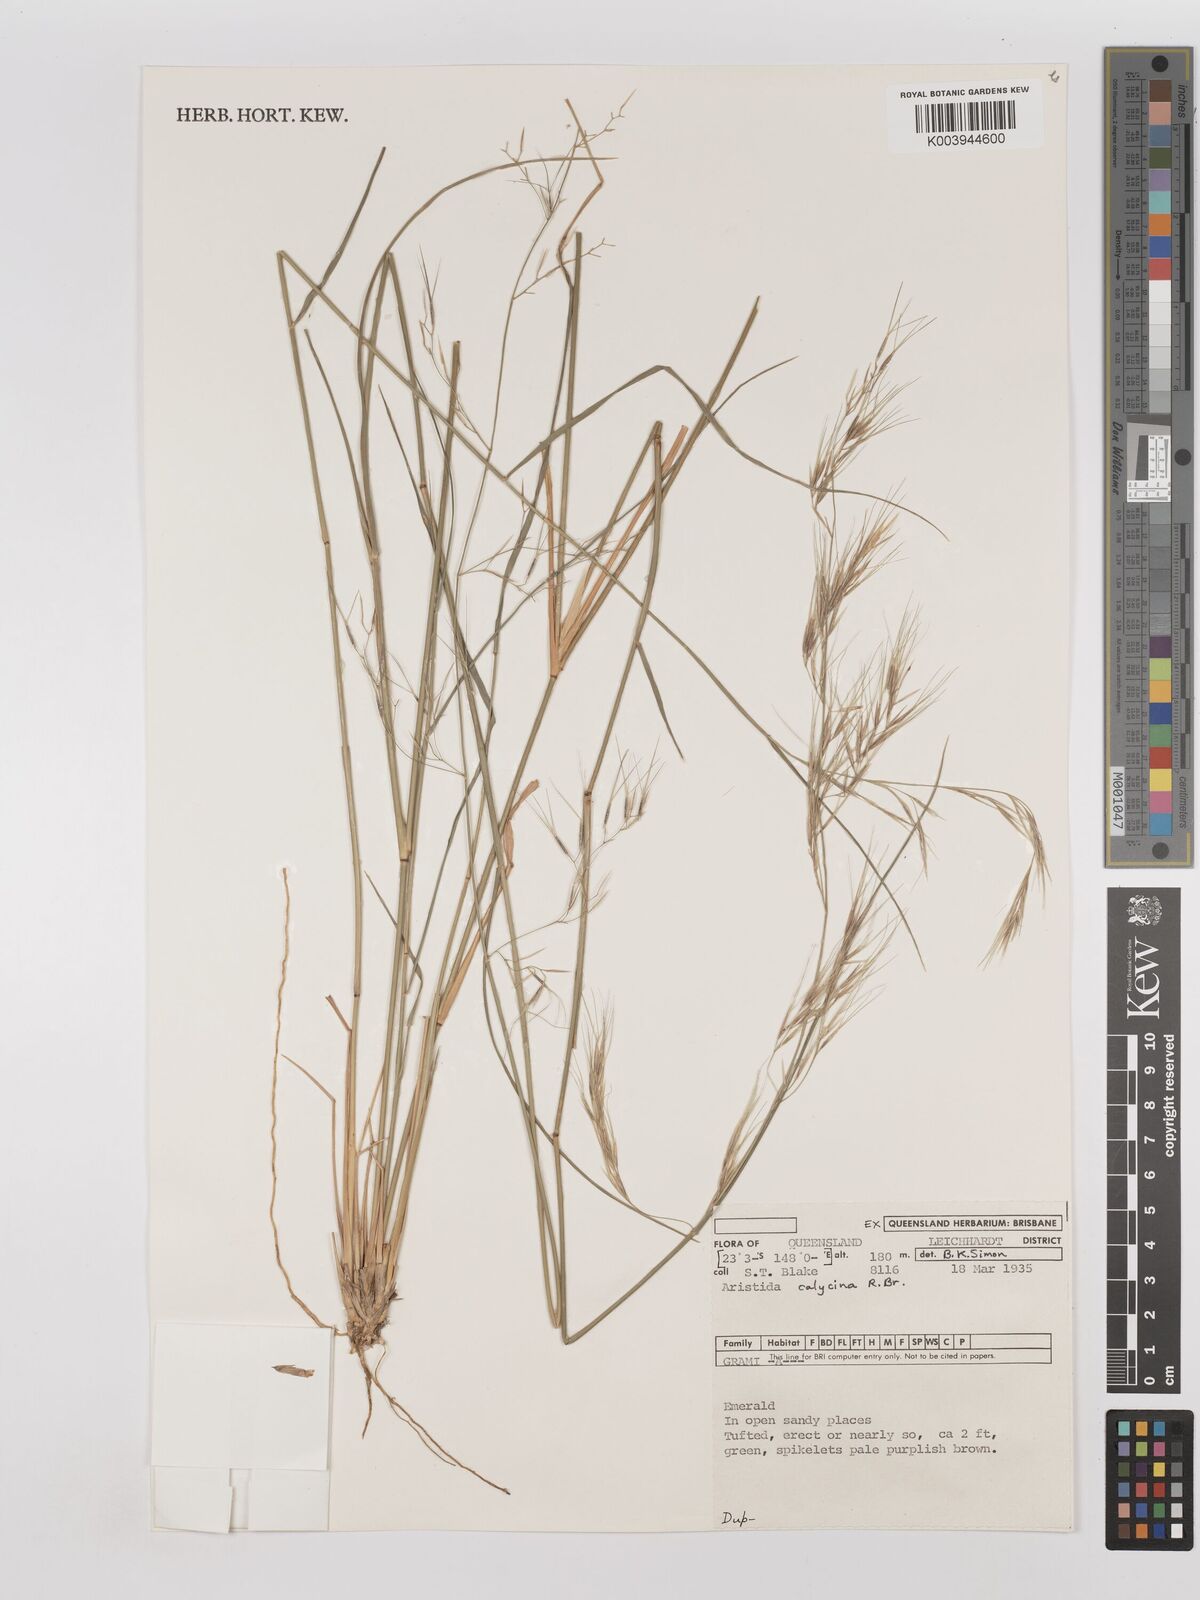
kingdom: Plantae
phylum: Tracheophyta
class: Liliopsida
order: Poales
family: Poaceae
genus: Aristida
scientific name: Aristida calycina
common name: Dark wire grass
